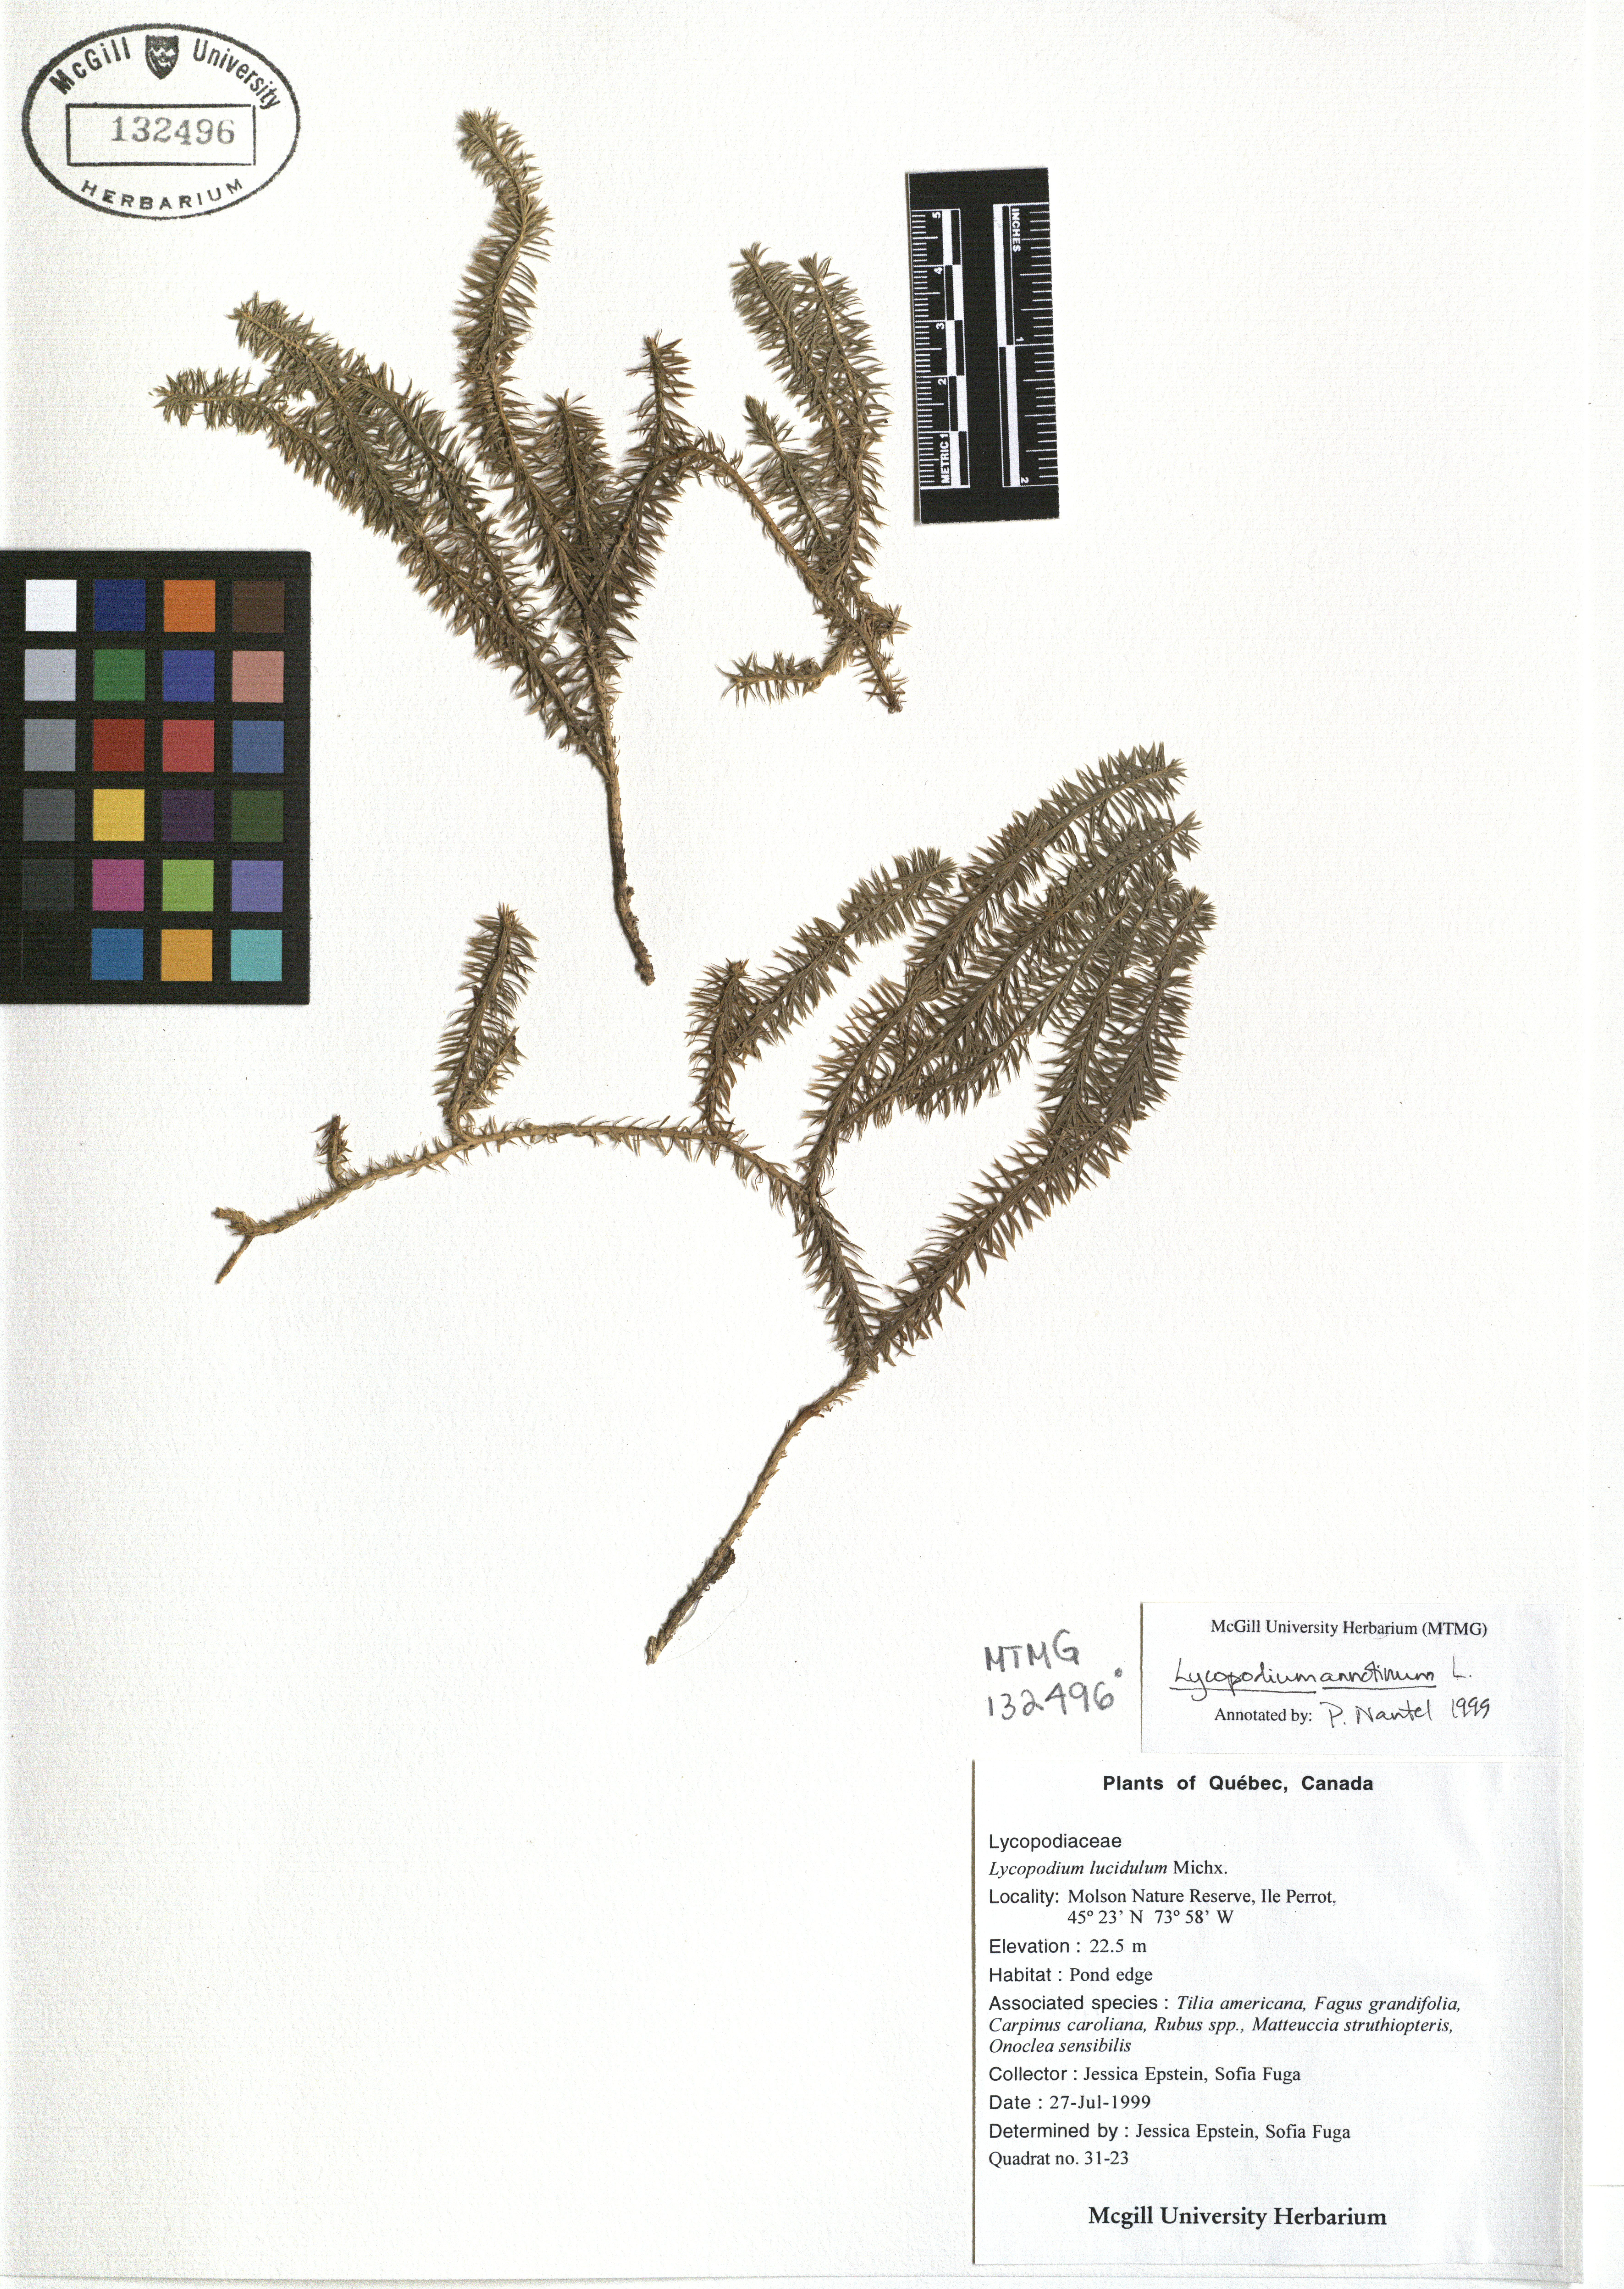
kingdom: Plantae
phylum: Tracheophyta
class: Lycopodiopsida
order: Lycopodiales
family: Lycopodiaceae
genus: Spinulum
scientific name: Spinulum annotinum
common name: Interrupted club-moss
